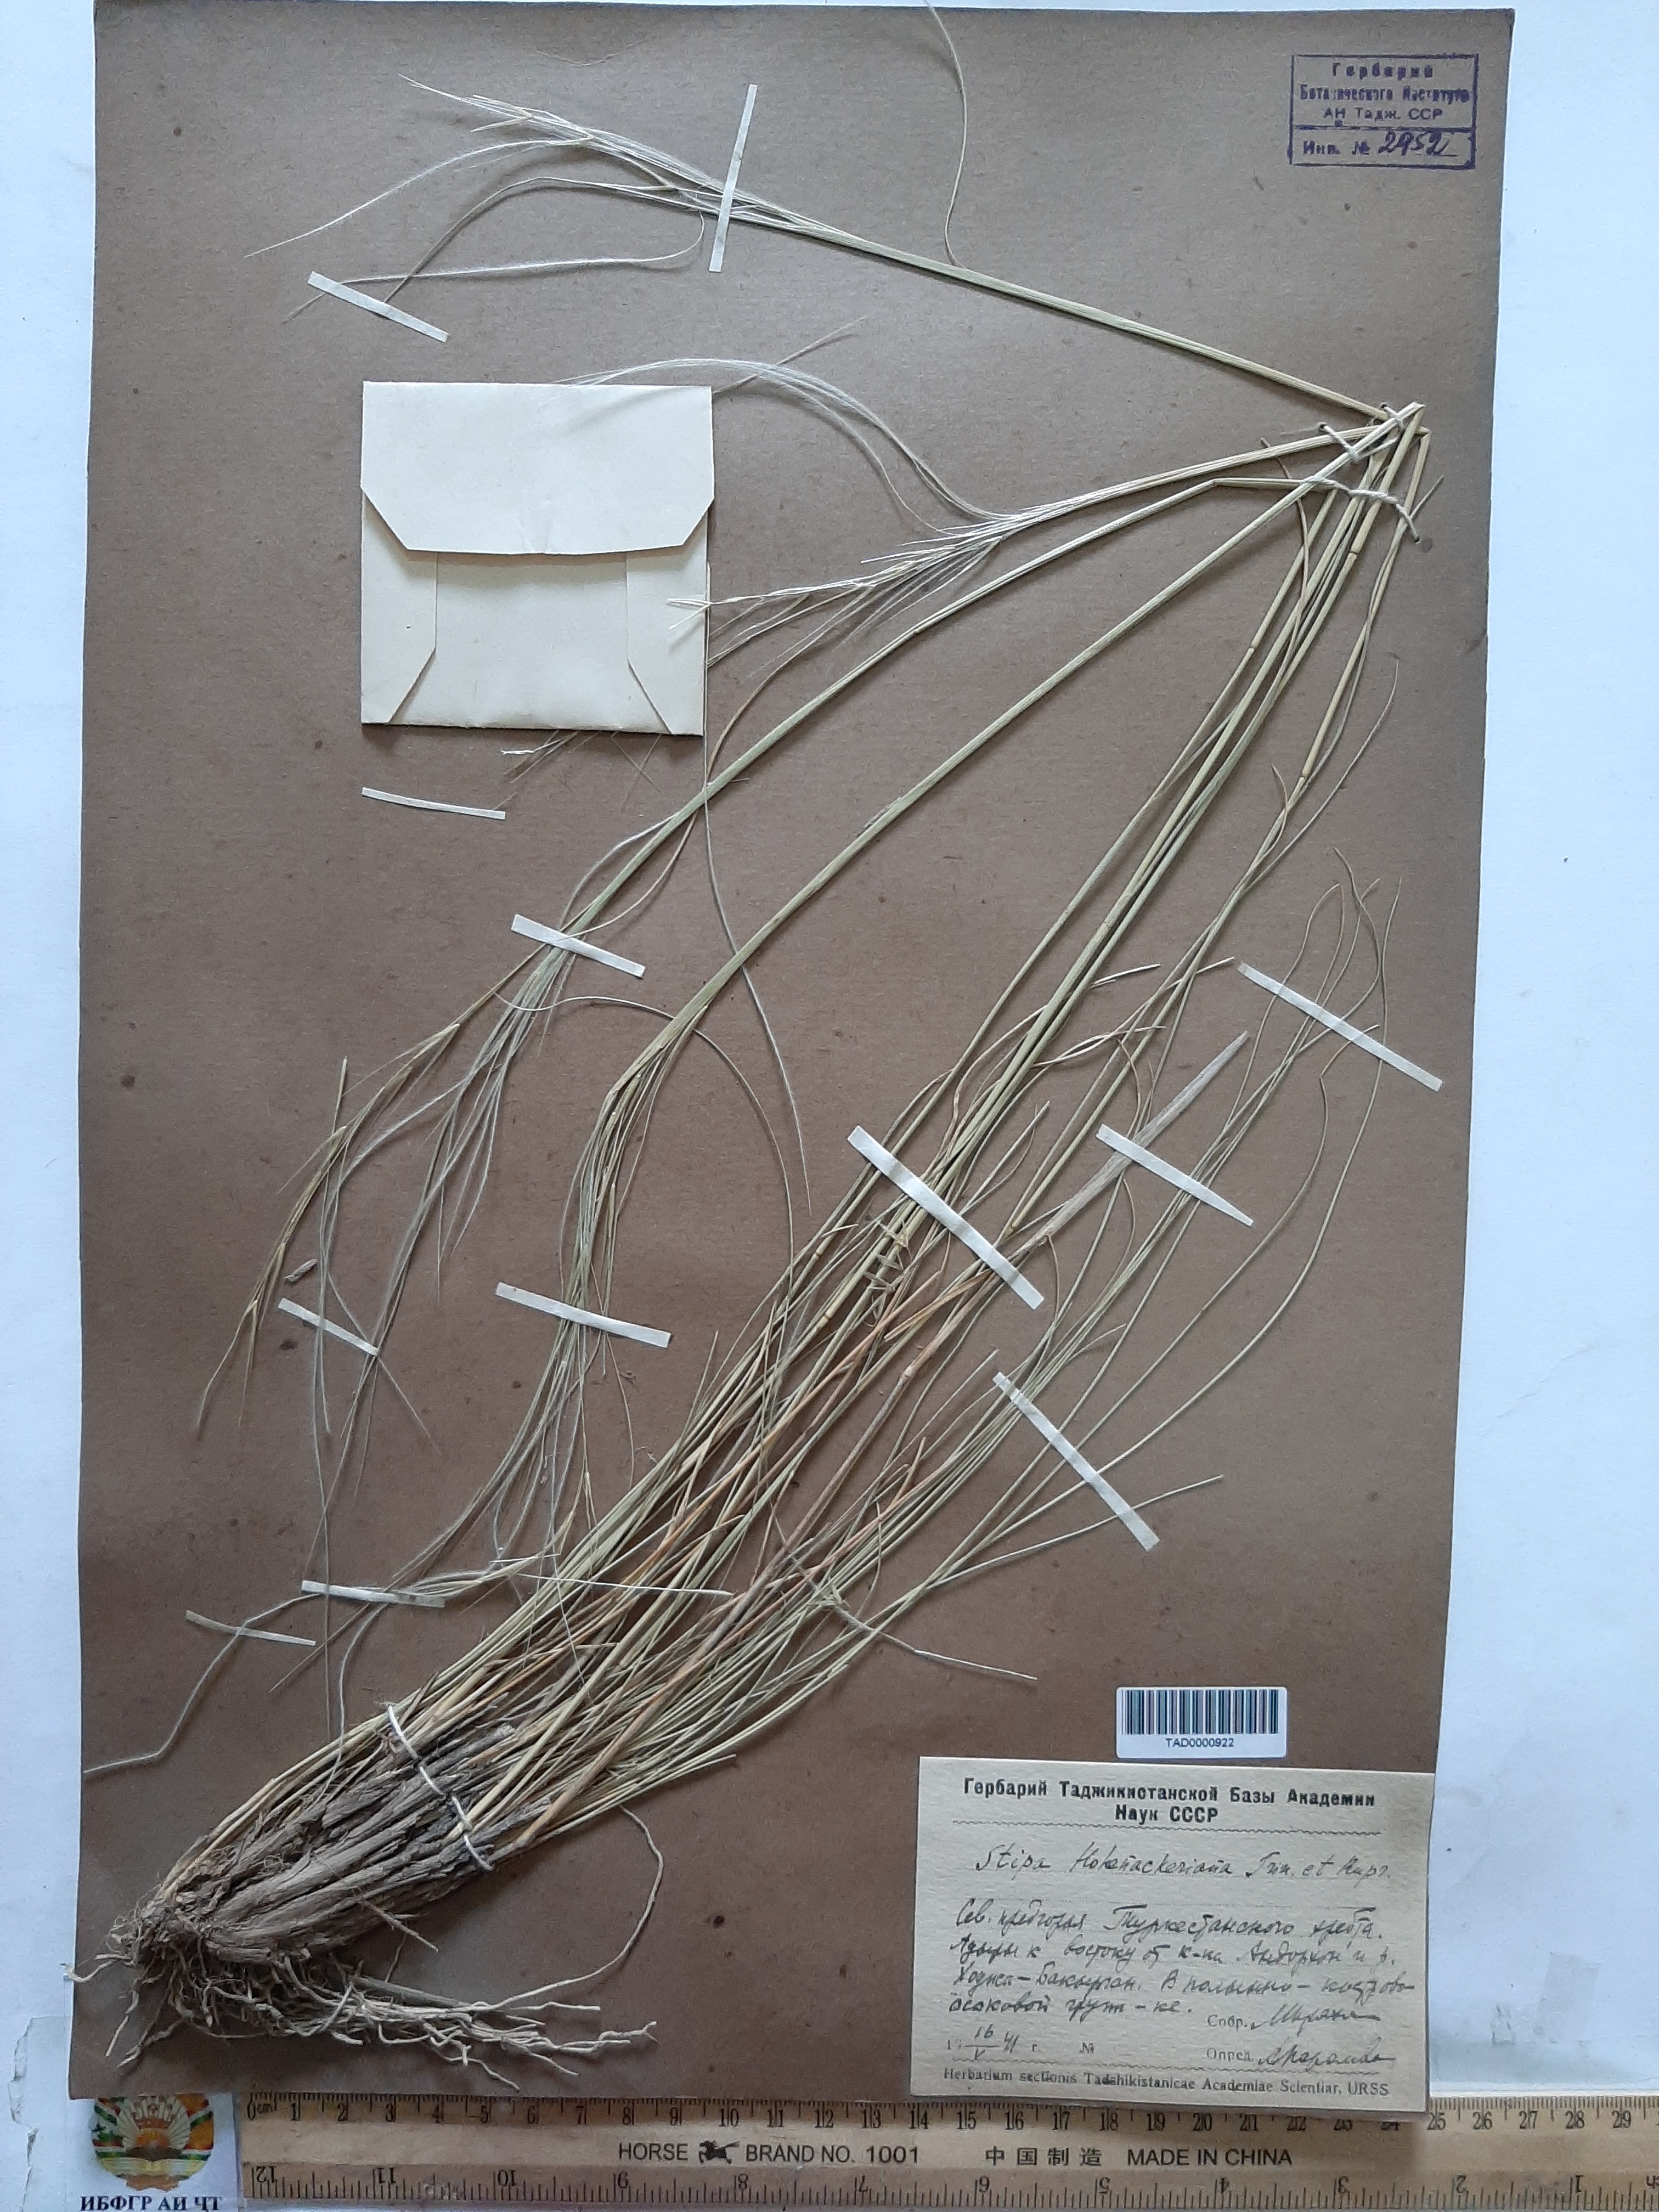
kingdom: Plantae
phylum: Tracheophyta
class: Liliopsida
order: Poales
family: Poaceae
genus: Stipa
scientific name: Stipa hohenackeriana
